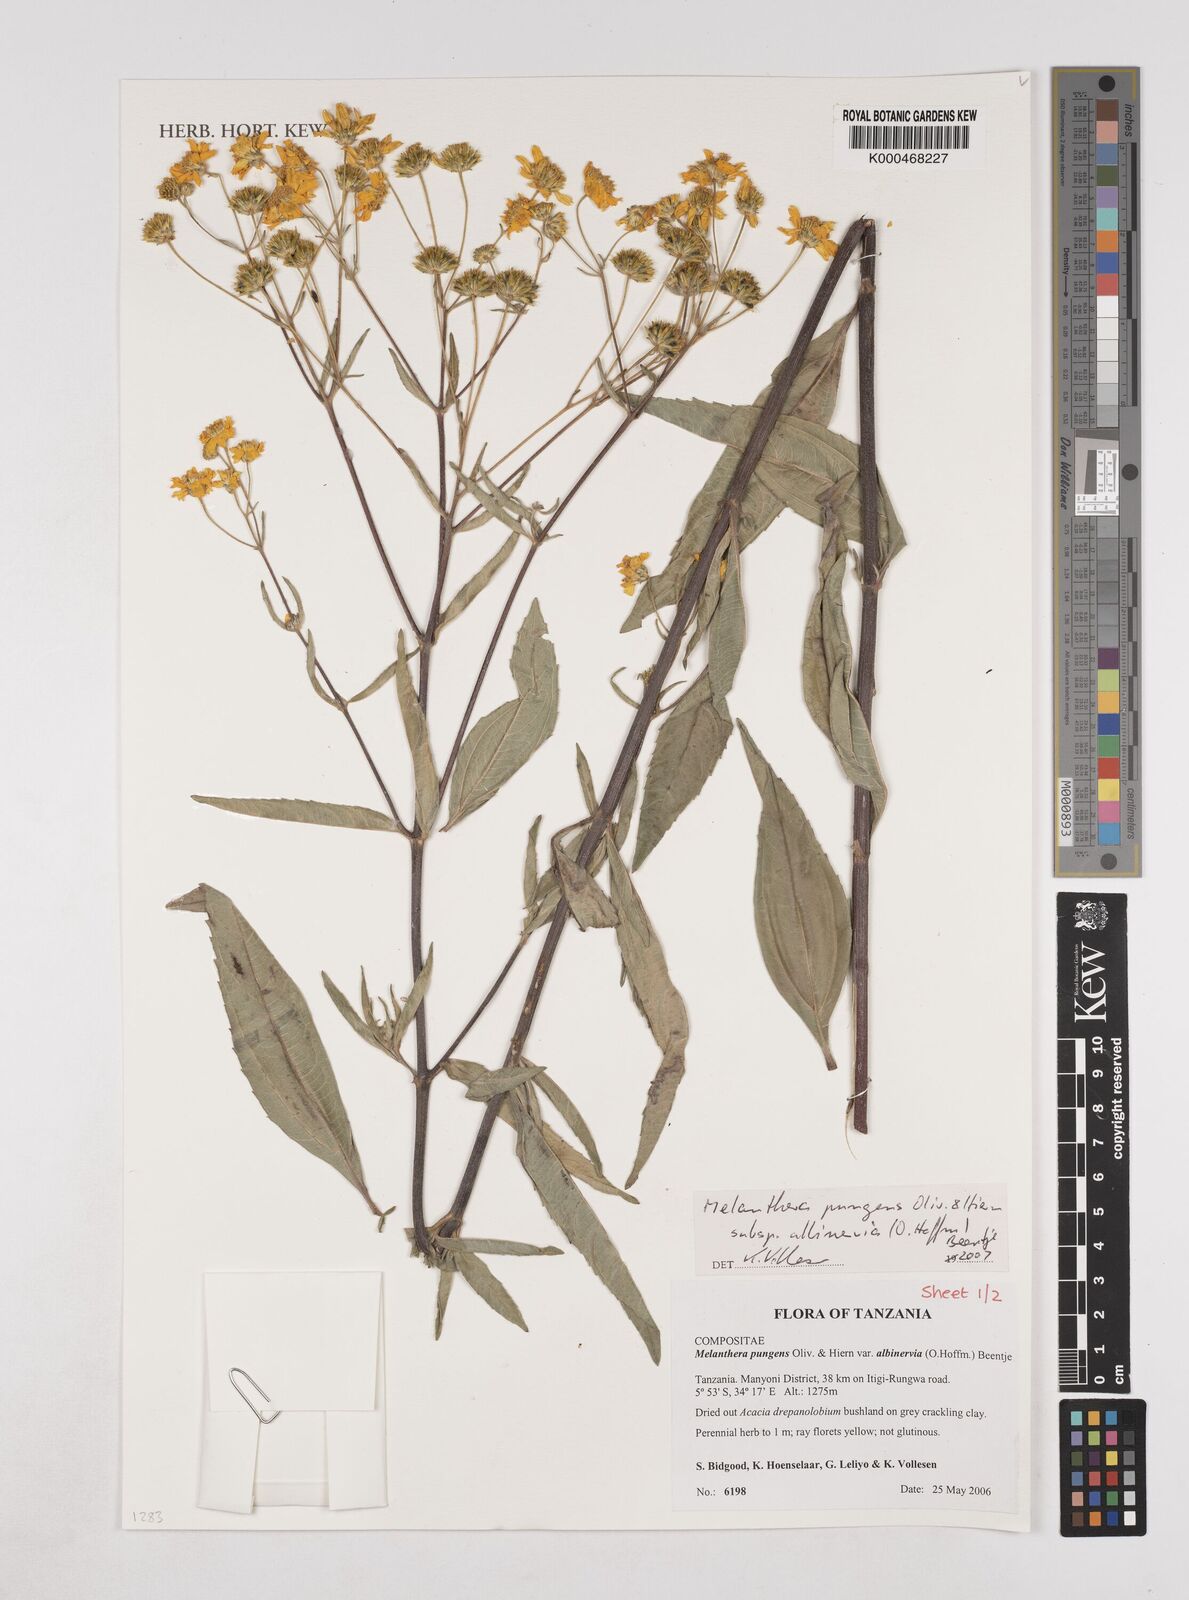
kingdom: Plantae
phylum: Tracheophyta
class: Magnoliopsida
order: Asterales
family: Asteraceae
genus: Lipotriche
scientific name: Lipotriche pungens
